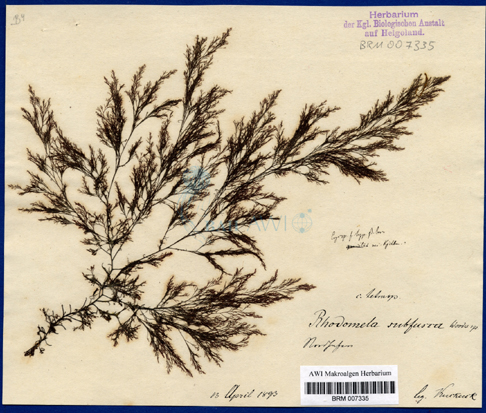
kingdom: Plantae
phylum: Rhodophyta
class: Florideophyceae
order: Ceramiales
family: Rhodomelaceae
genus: Rhodomela
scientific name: Rhodomela lycopodioides
